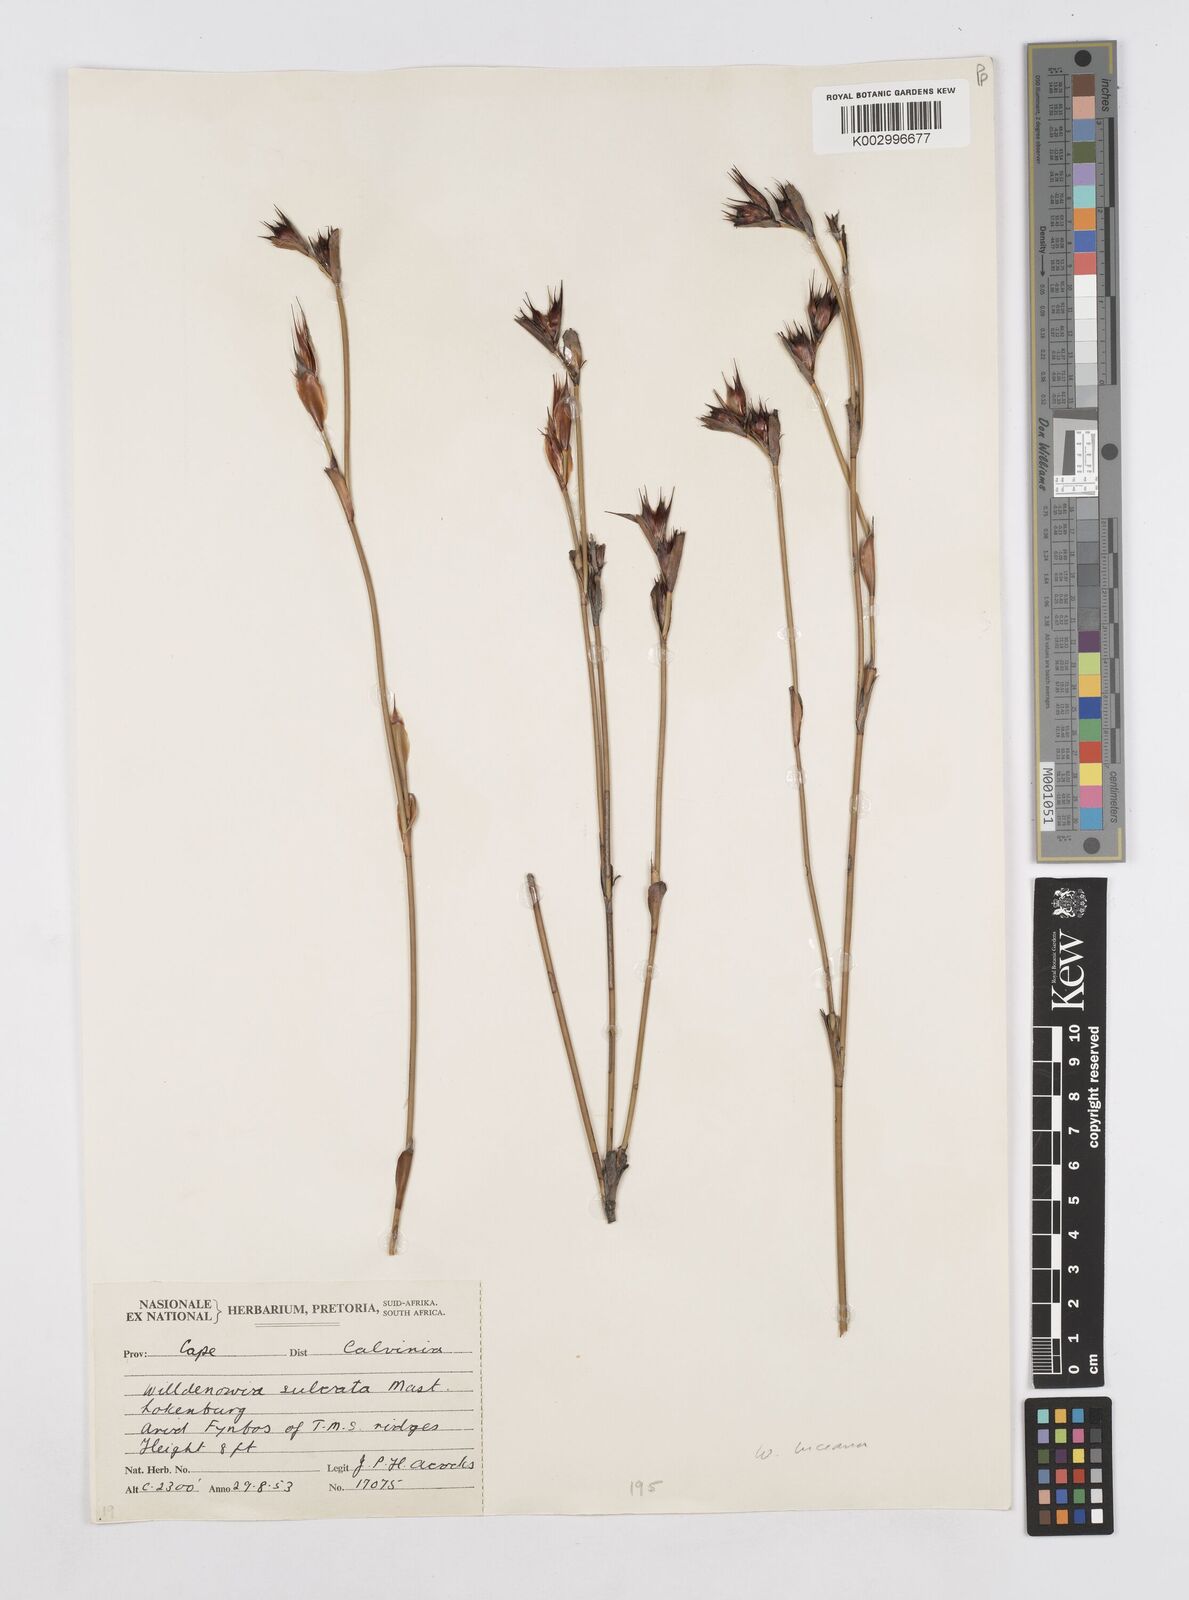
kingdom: Plantae
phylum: Tracheophyta
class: Liliopsida
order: Poales
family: Restionaceae
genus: Willdenowia
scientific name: Willdenowia glomerata
